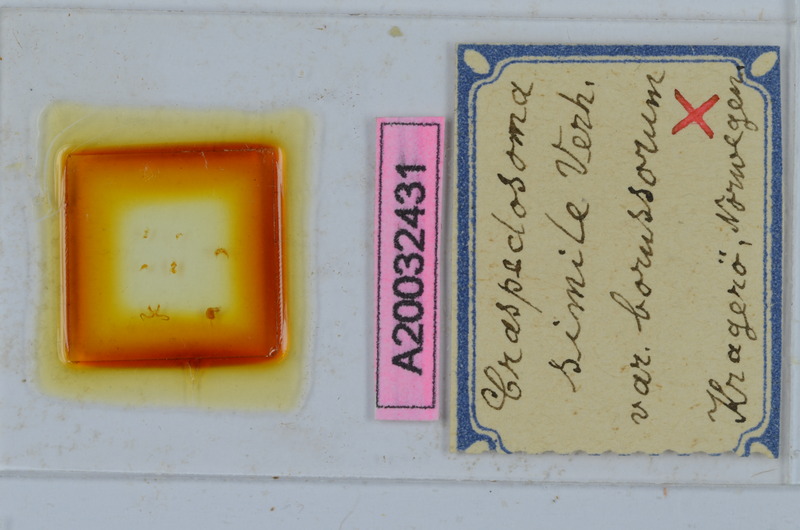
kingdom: Animalia
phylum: Arthropoda
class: Diplopoda
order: Chordeumatida
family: Craspedosomatidae
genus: Craspedosoma
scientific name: Craspedosoma rawlinsii
